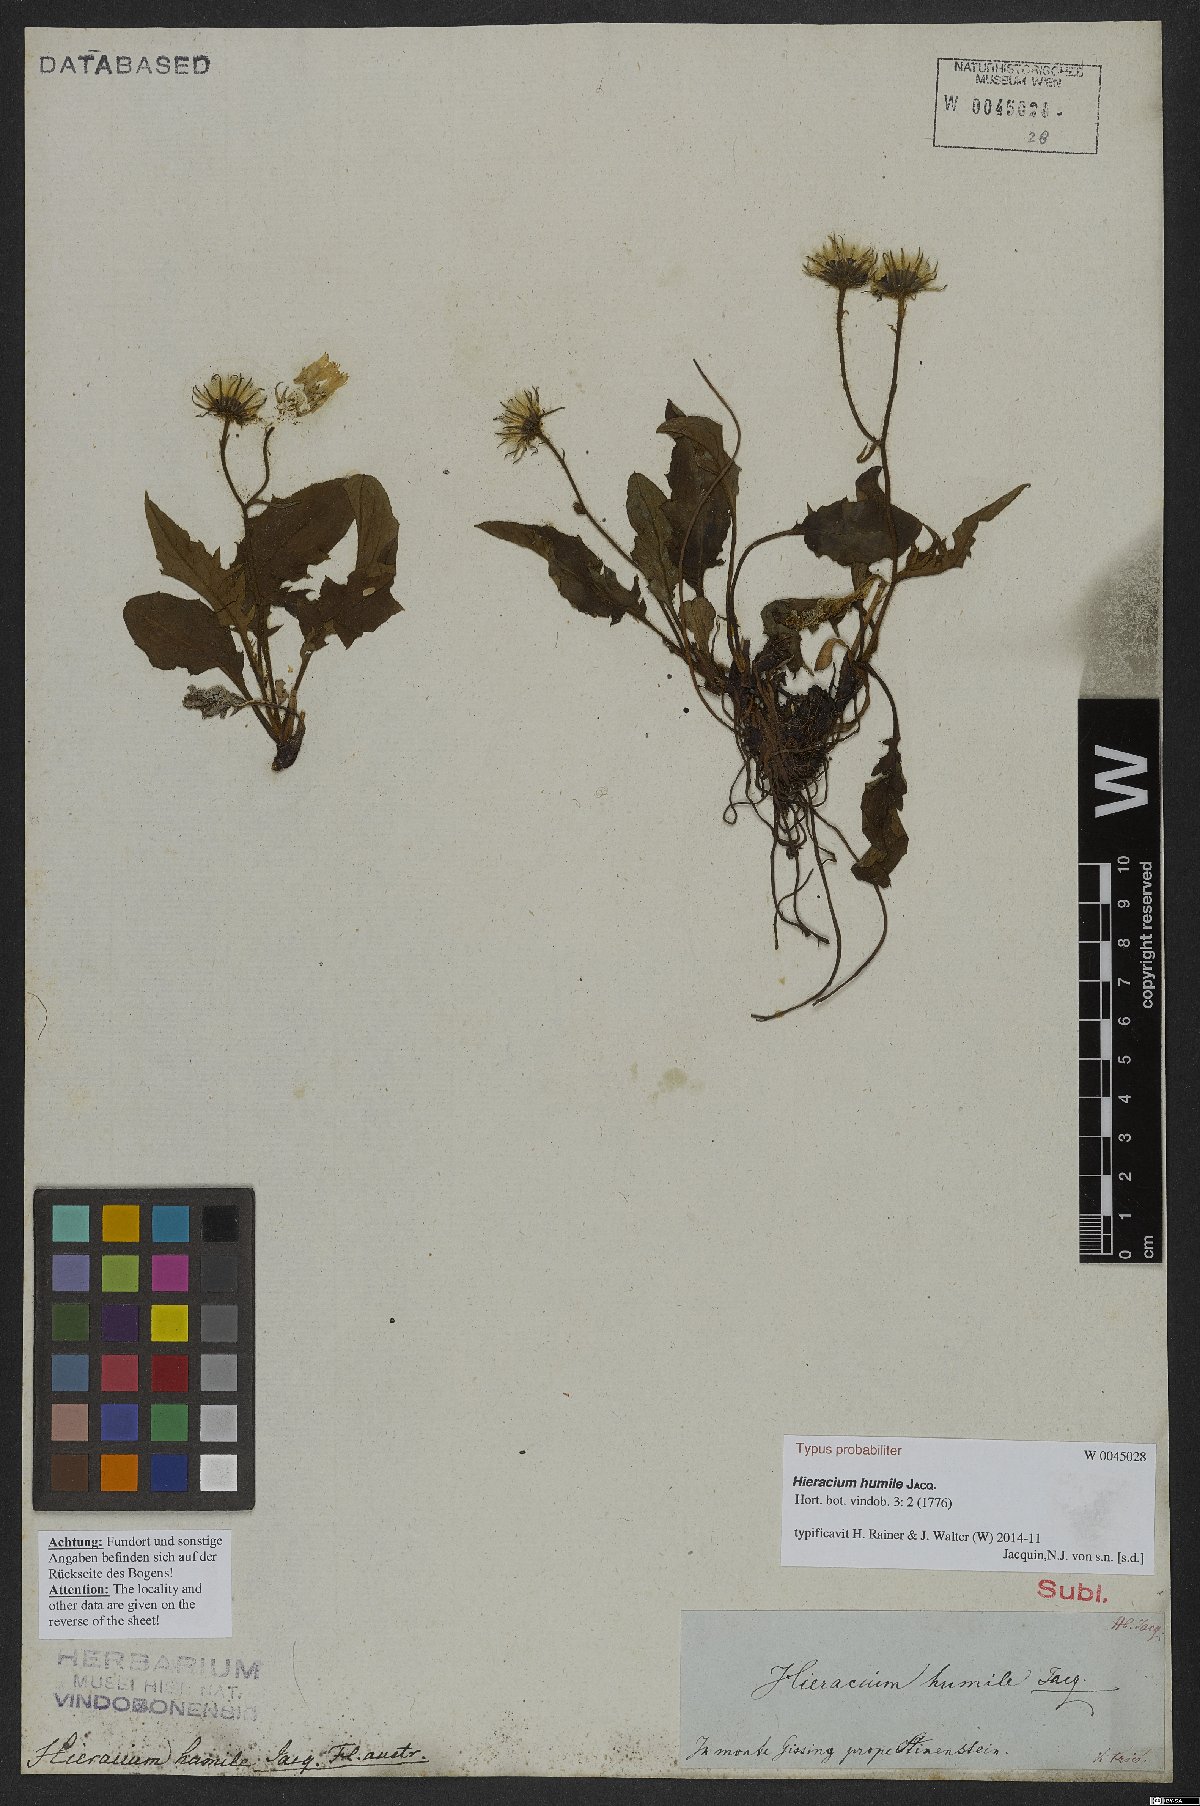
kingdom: Plantae
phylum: Tracheophyta
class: Magnoliopsida
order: Asterales
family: Asteraceae
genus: Hieracium
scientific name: Hieracium humile
